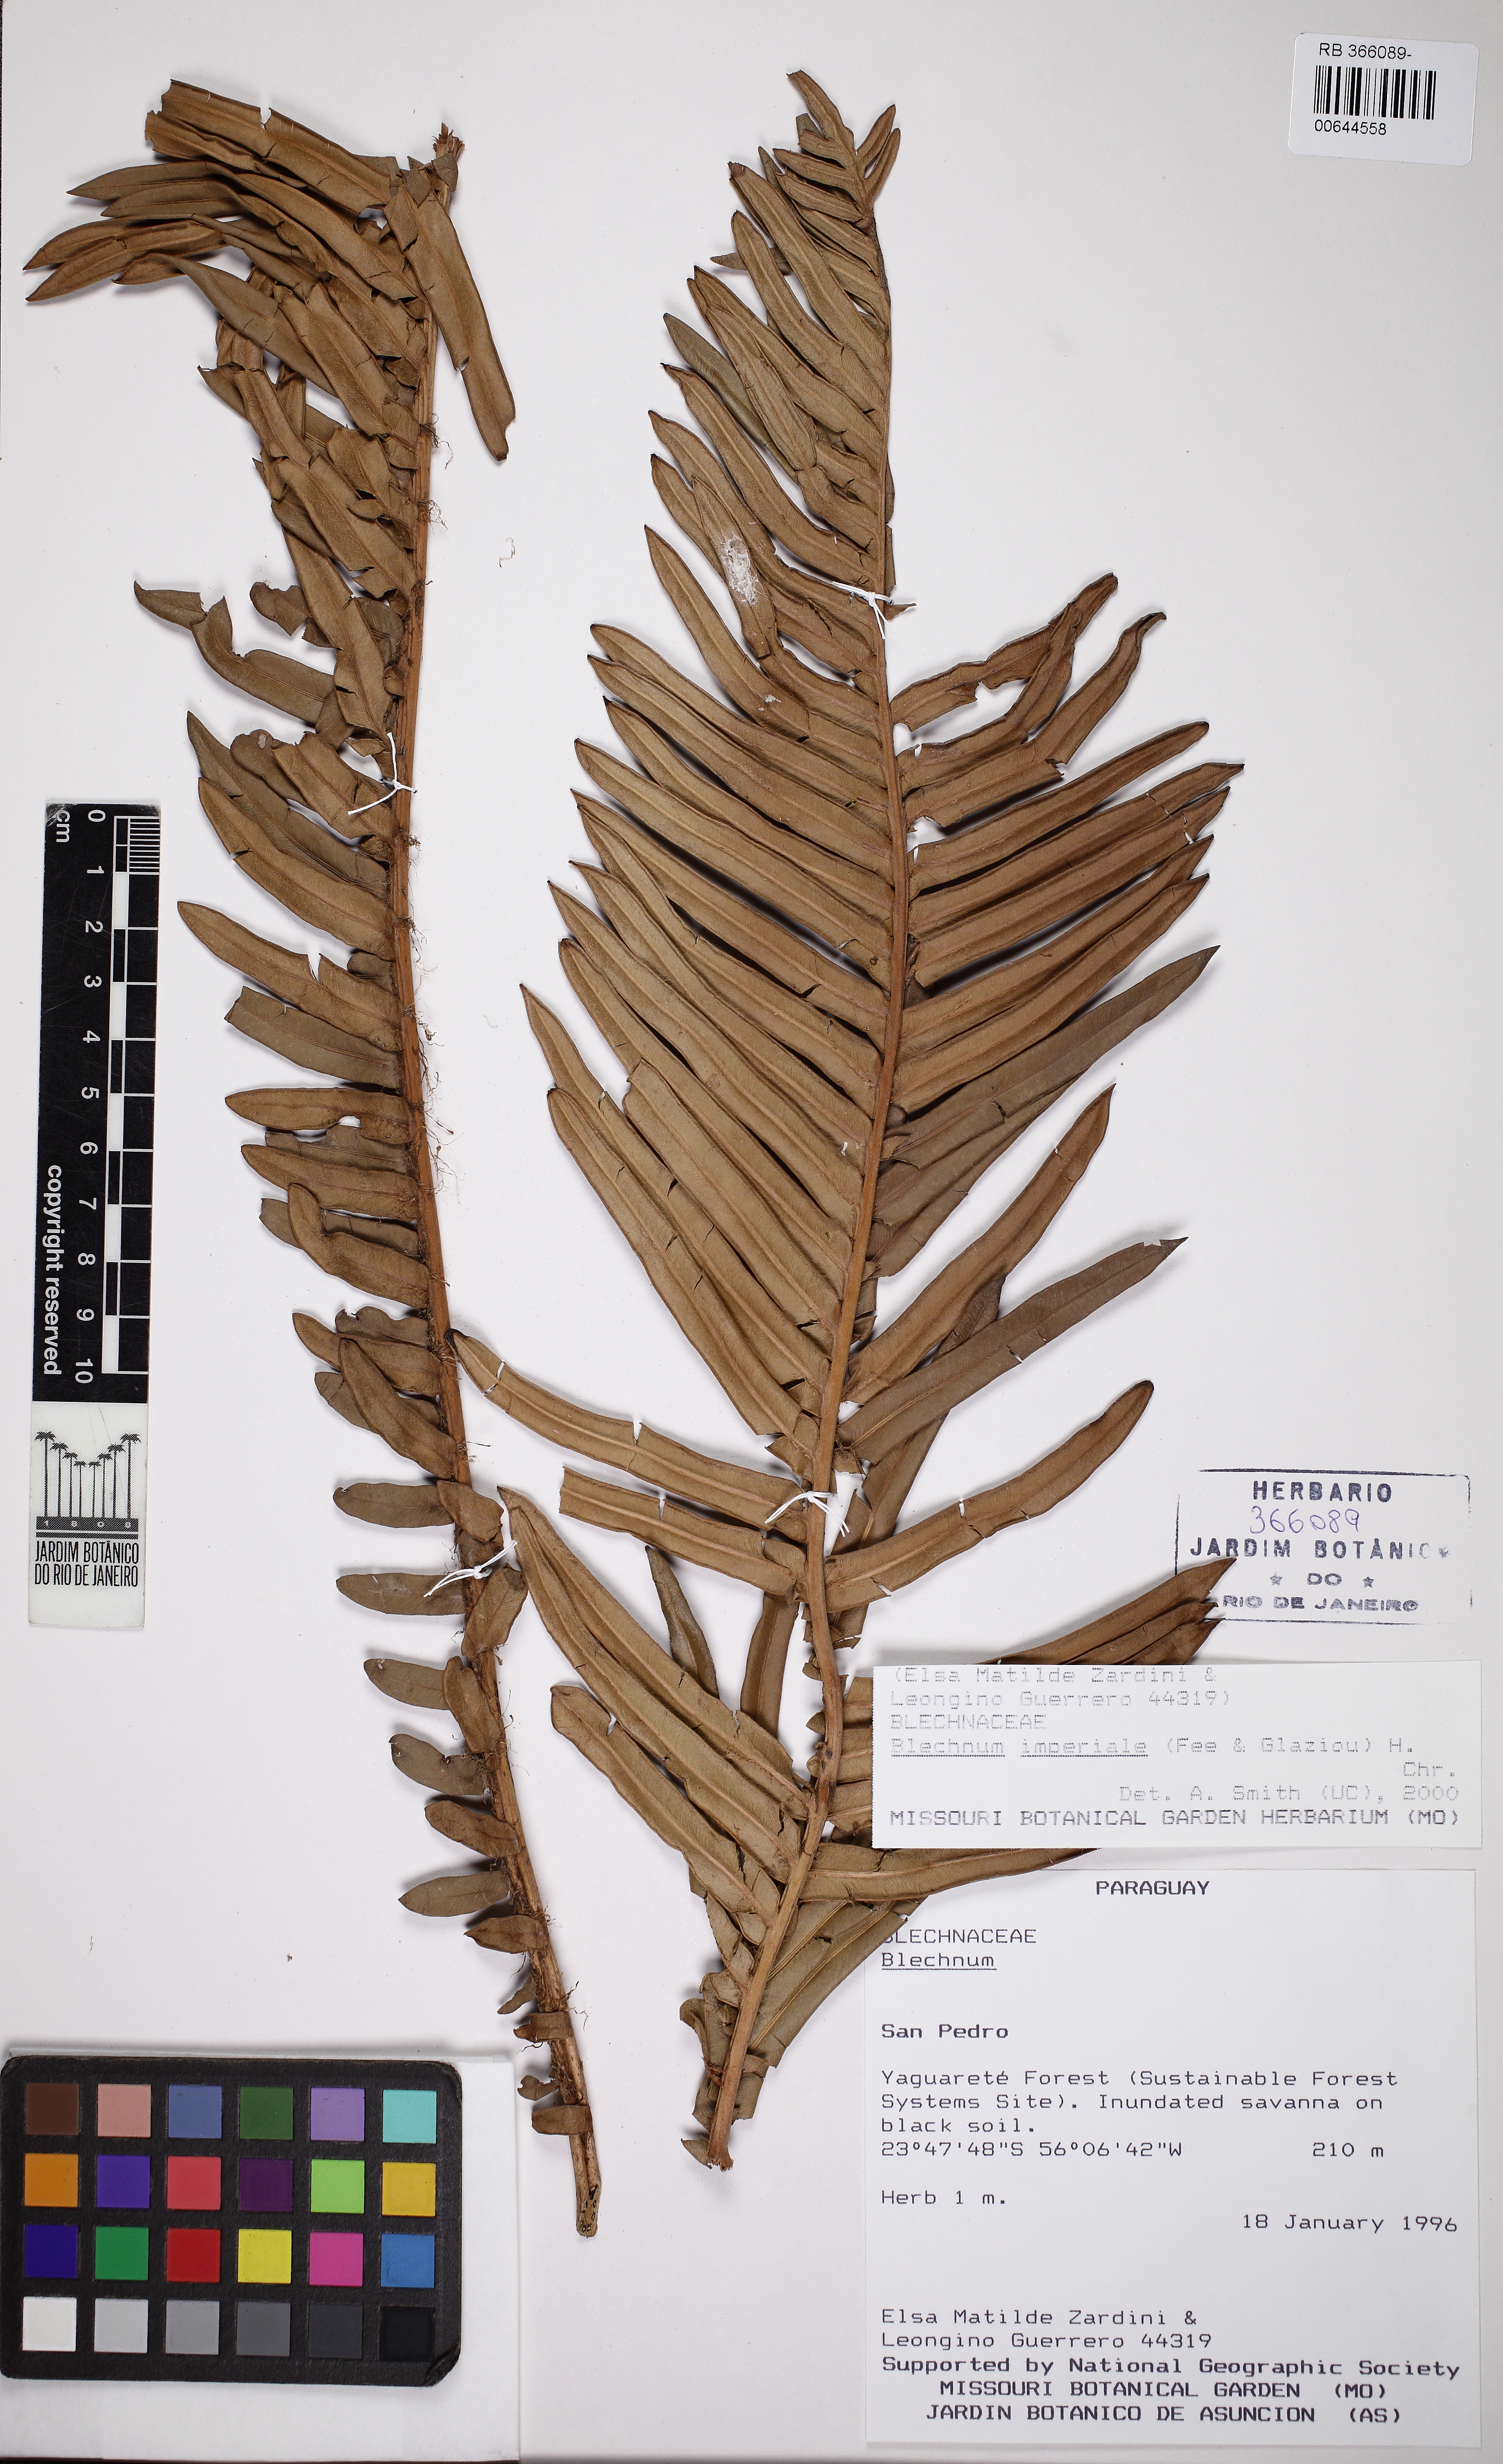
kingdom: Plantae
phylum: Tracheophyta
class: Polypodiopsida
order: Polypodiales
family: Blechnaceae
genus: Lomariocycas
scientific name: Lomariocycas schomburgkii
